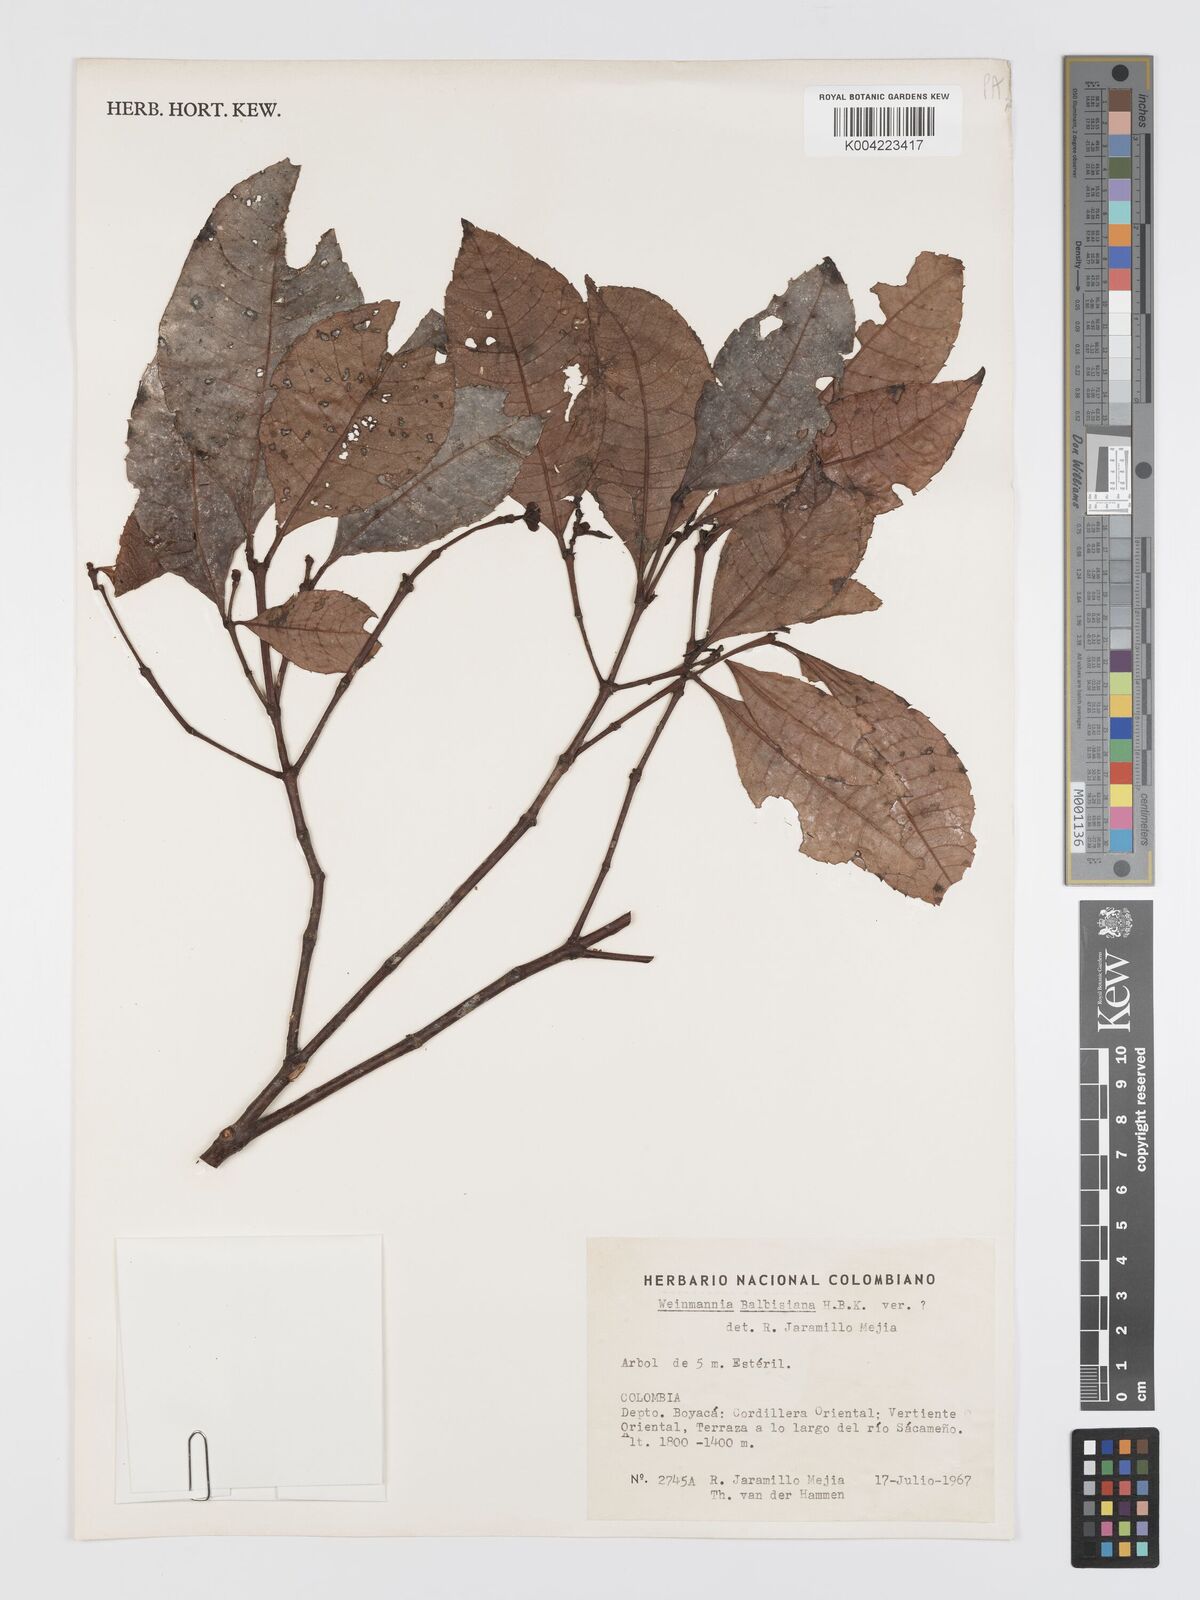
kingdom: Plantae
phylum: Tracheophyta
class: Magnoliopsida
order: Oxalidales
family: Cunoniaceae
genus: Weinmannia
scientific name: Weinmannia balbisana
